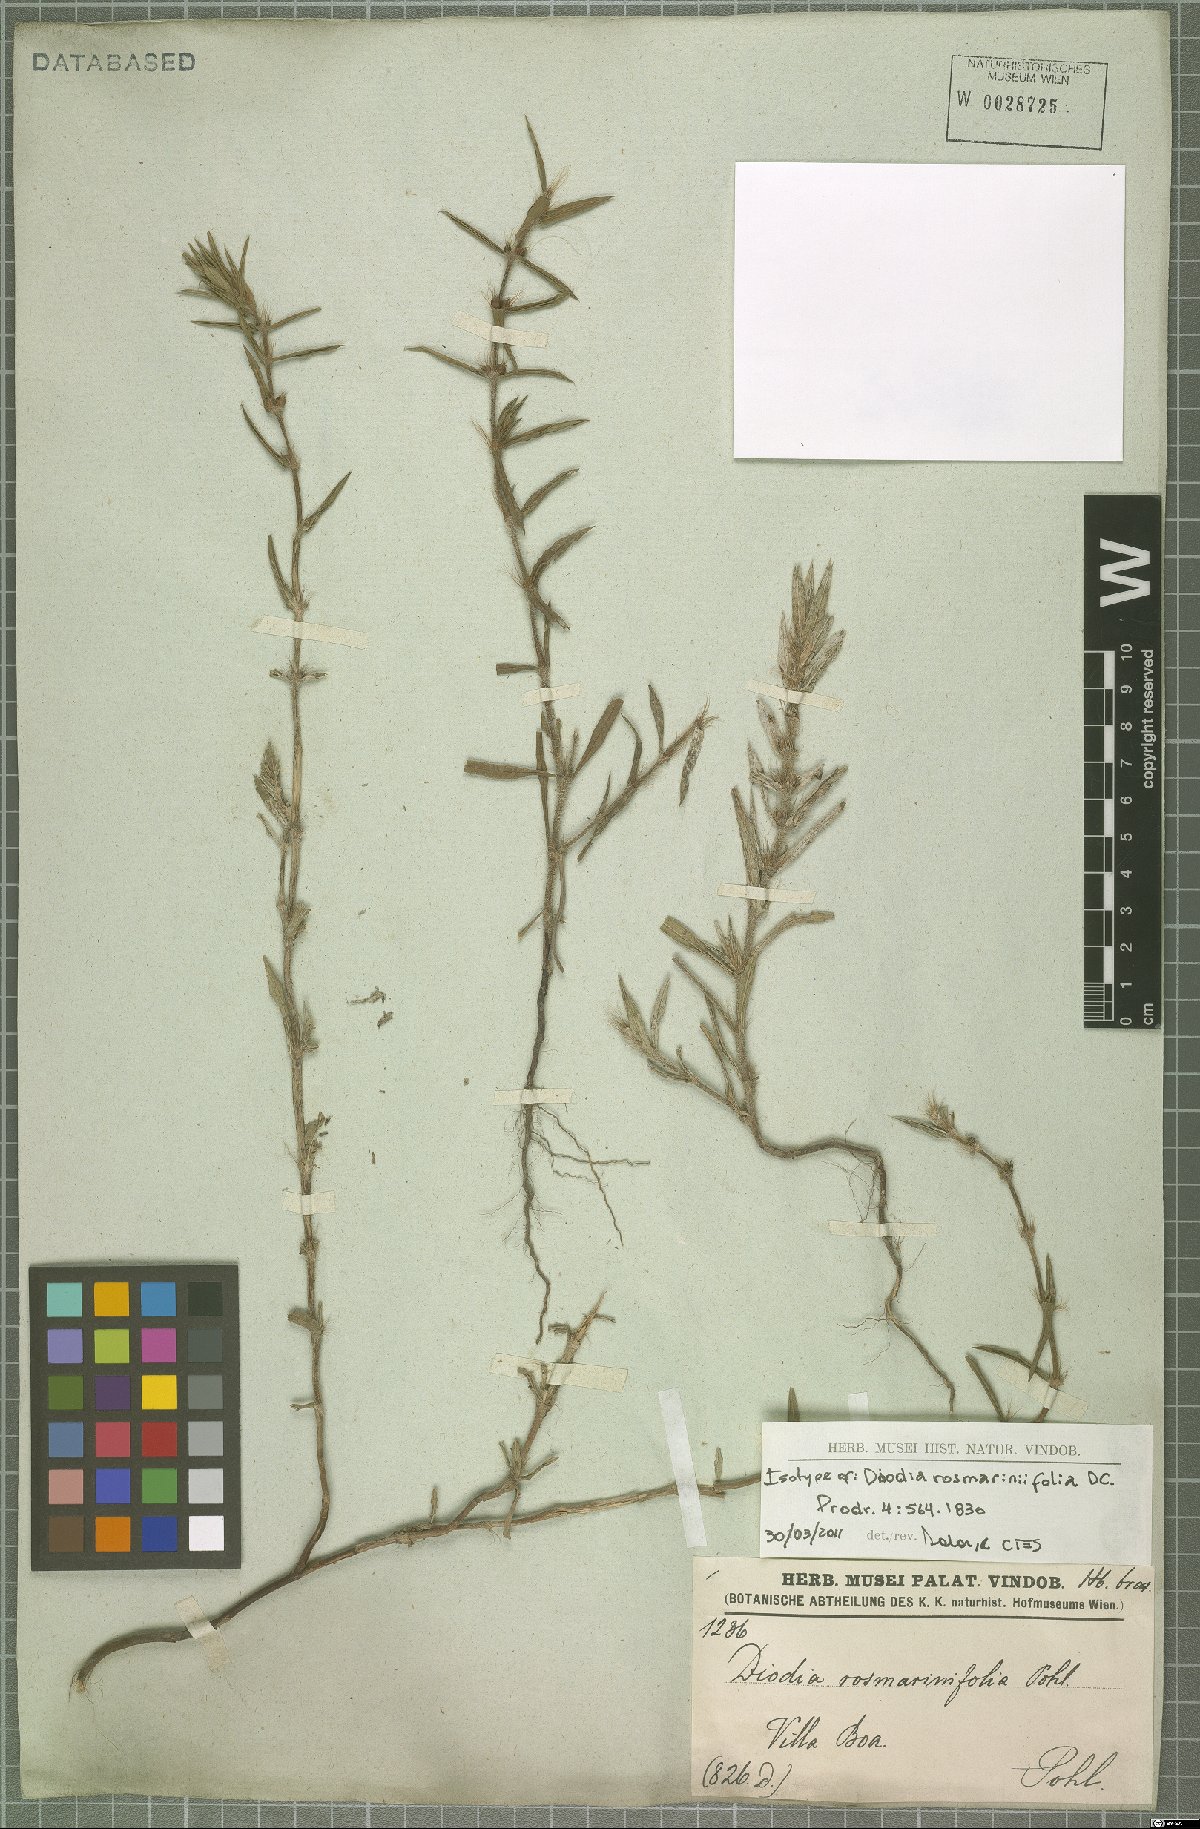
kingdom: Plantae
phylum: Tracheophyta
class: Magnoliopsida
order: Gentianales
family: Rubiaceae
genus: Hexasepalum
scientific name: Hexasepalum rosmarinifolium
